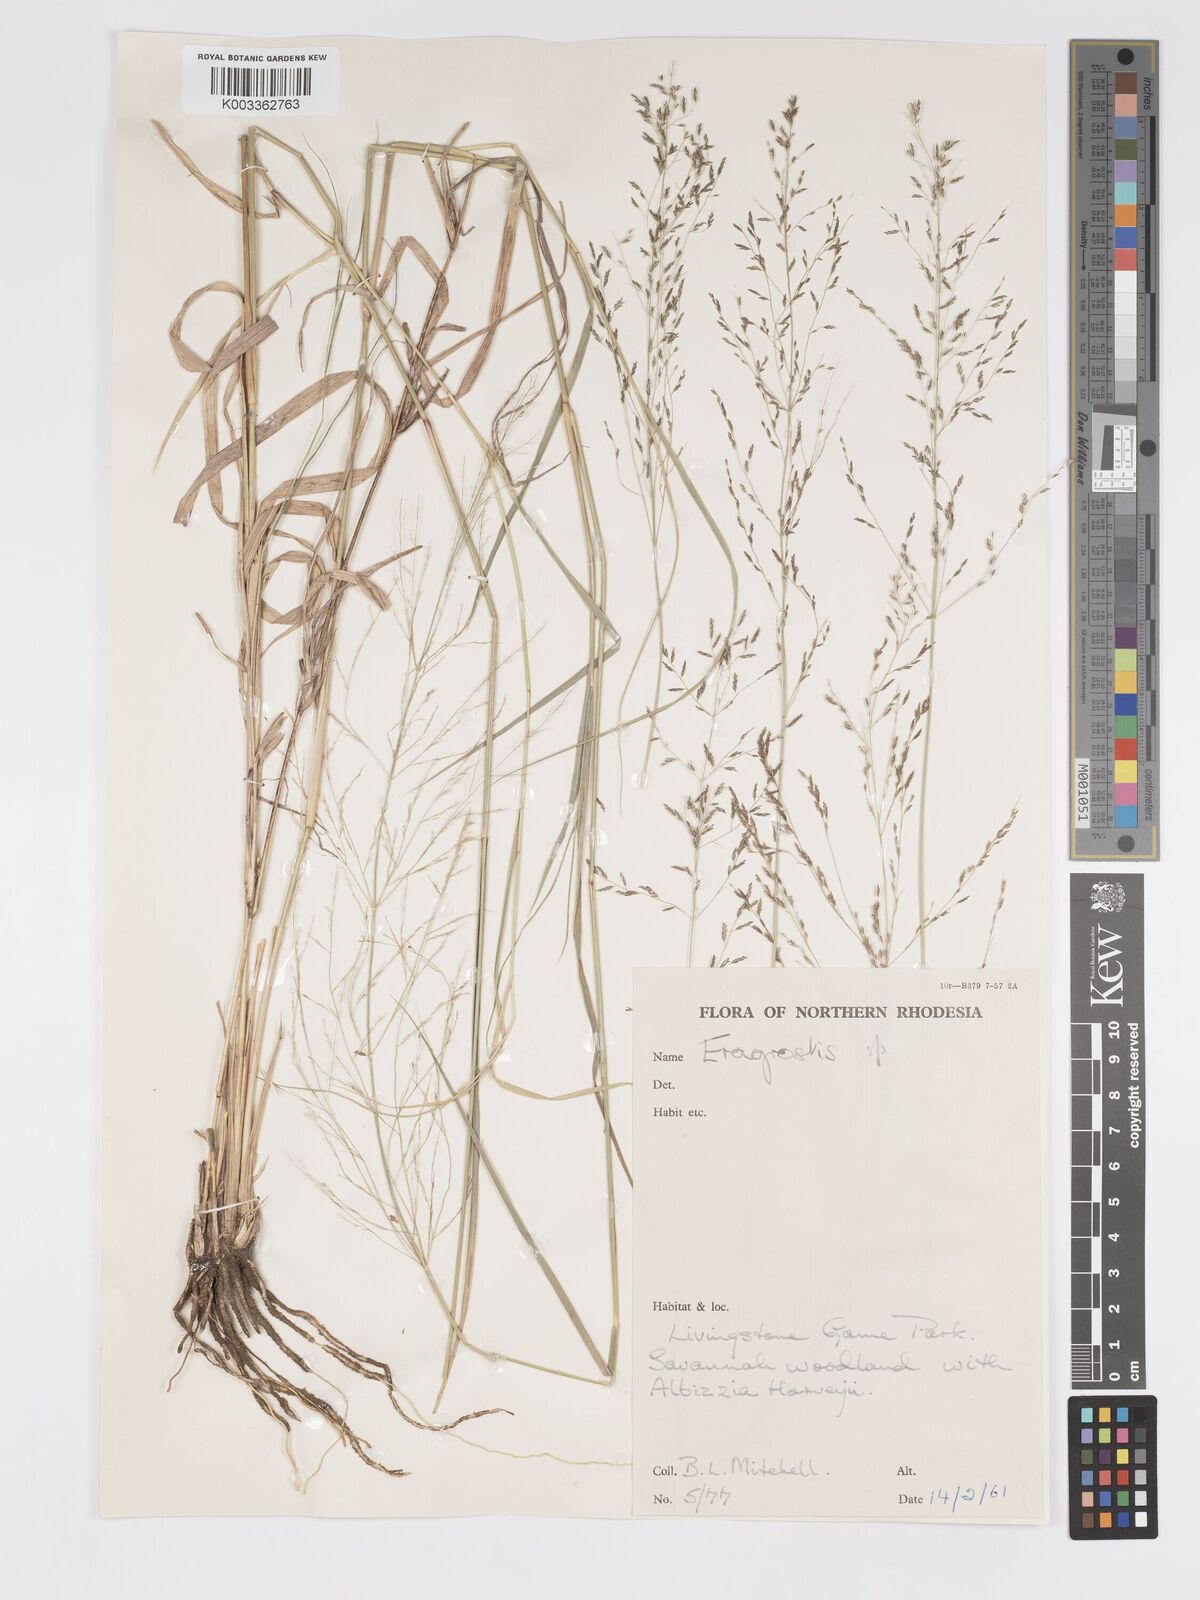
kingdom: Plantae
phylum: Tracheophyta
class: Liliopsida
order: Poales
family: Poaceae
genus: Eragrostis
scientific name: Eragrostis cylindriflora
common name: Cylinderflower lovegrass
